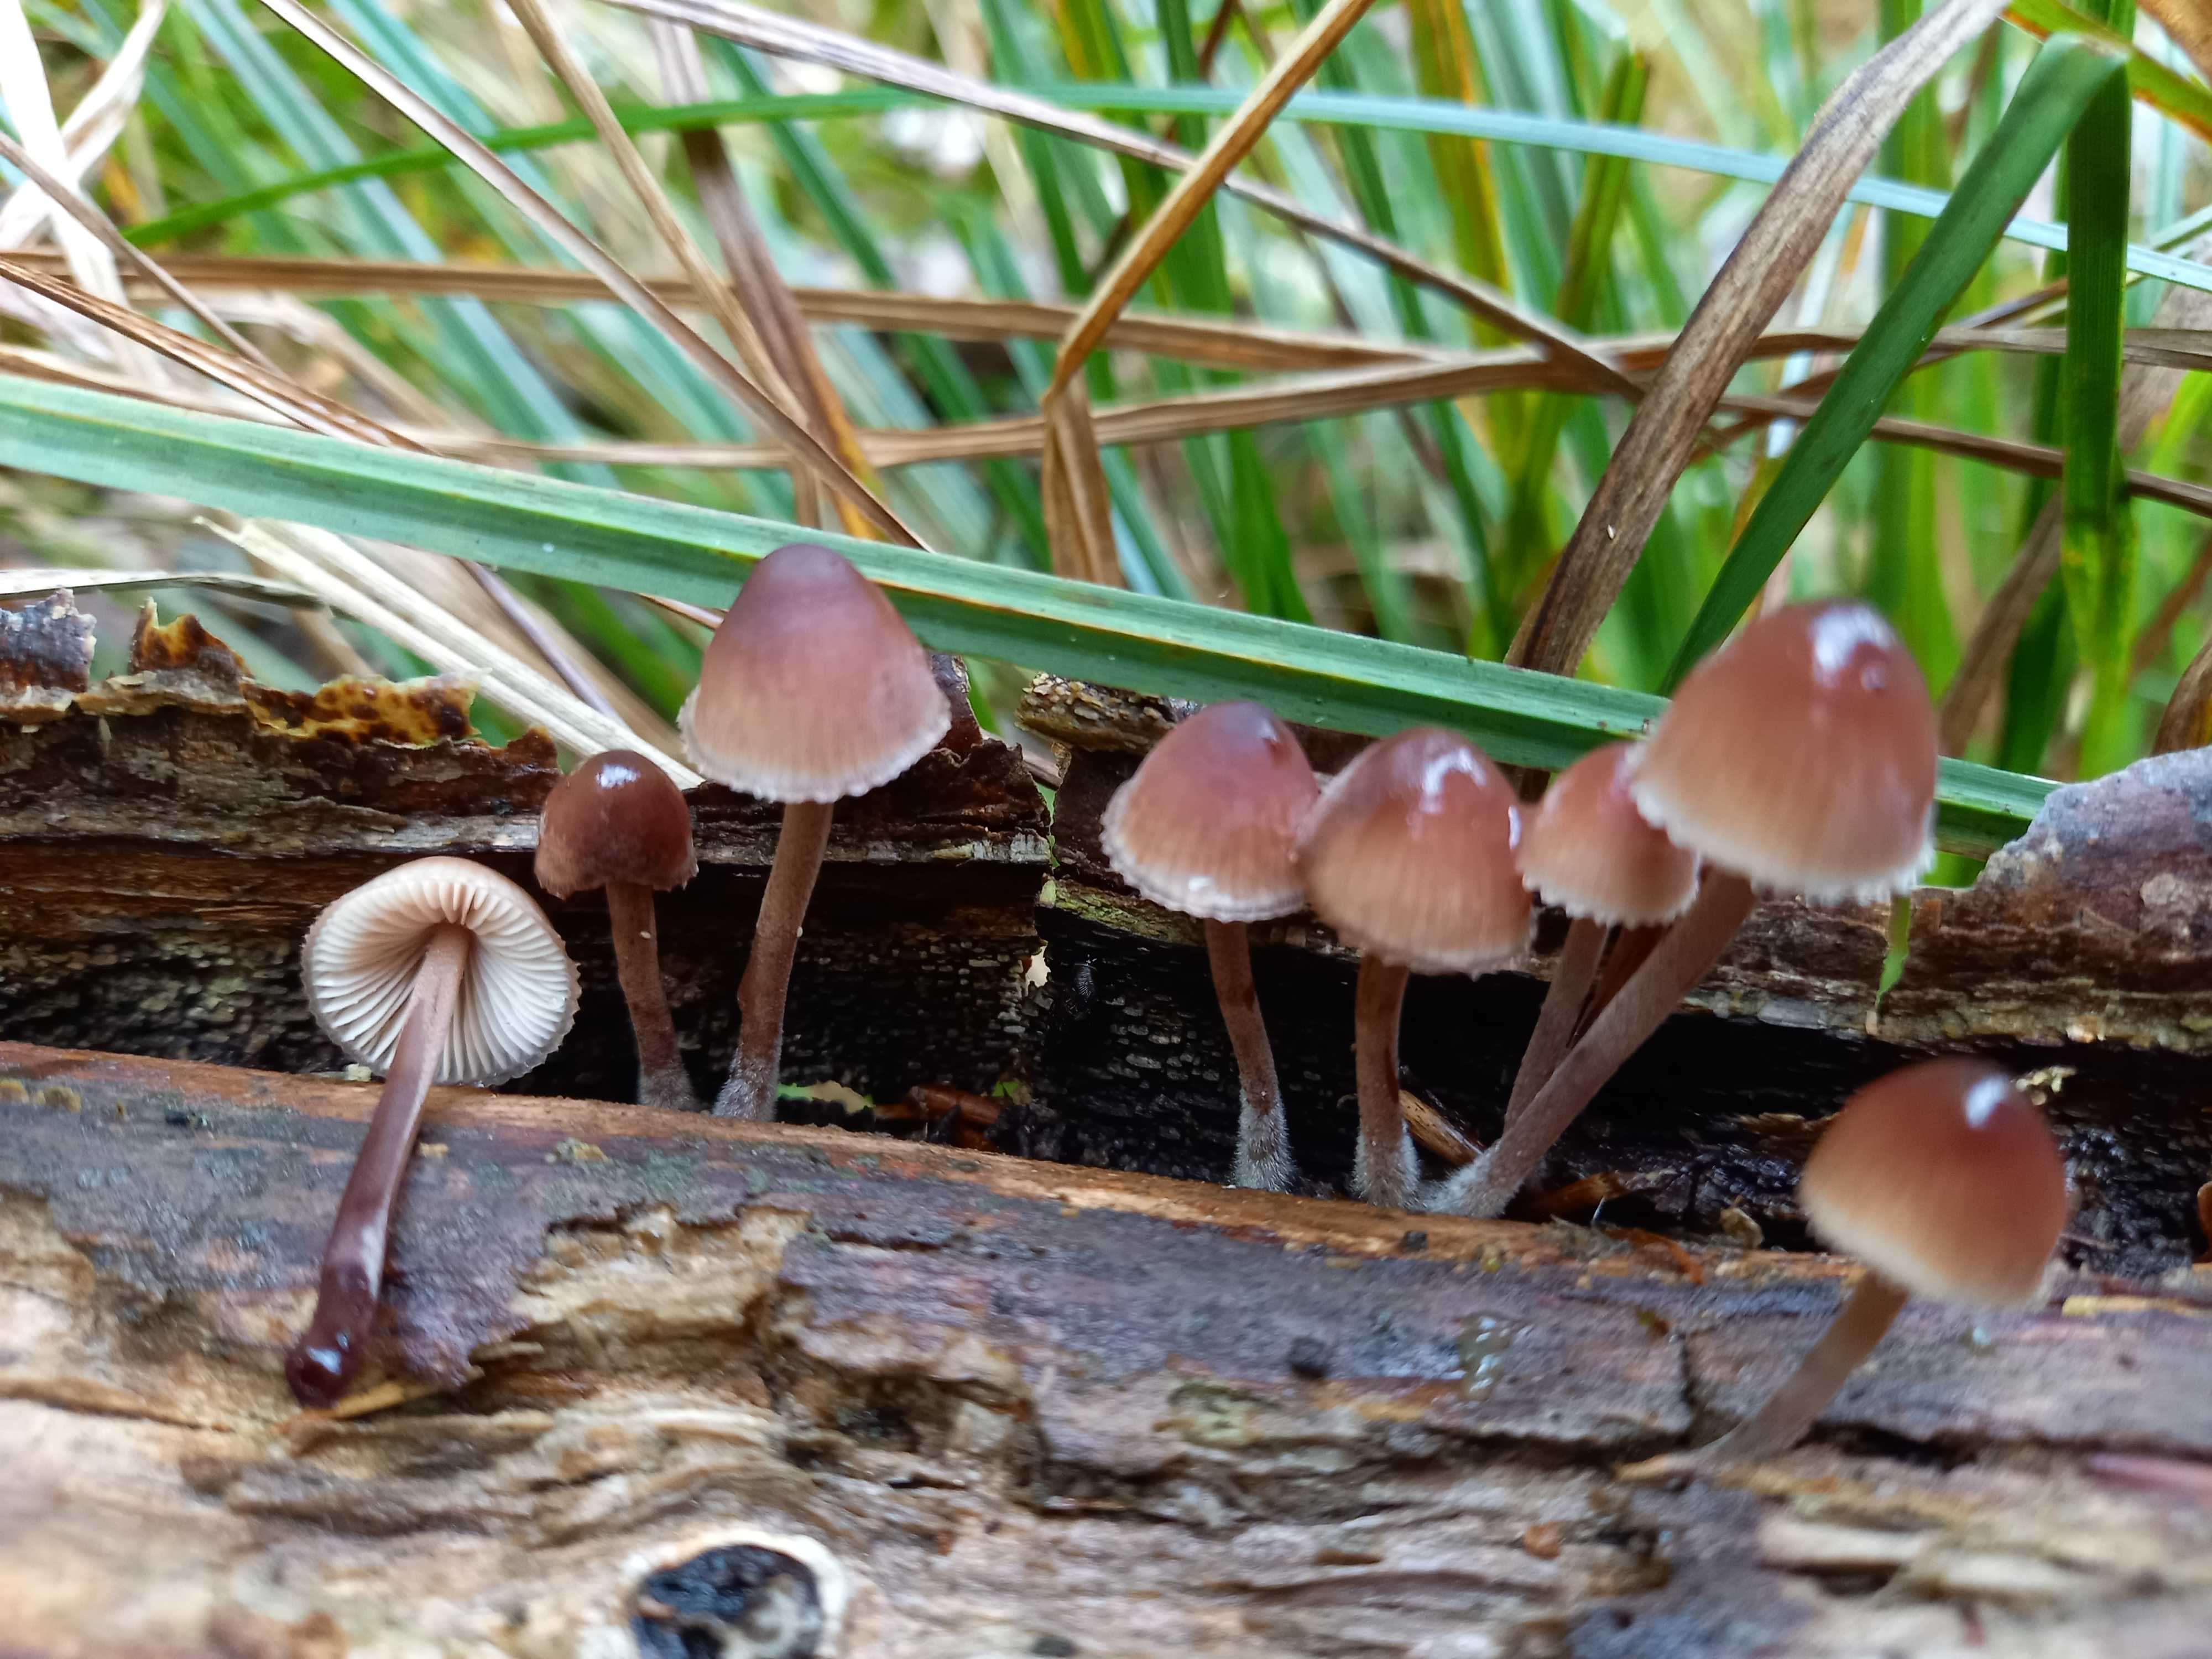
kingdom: Fungi
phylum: Basidiomycota
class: Agaricomycetes
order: Agaricales
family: Mycenaceae
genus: Mycena
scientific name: Mycena haematopus
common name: blødende huesvamp
